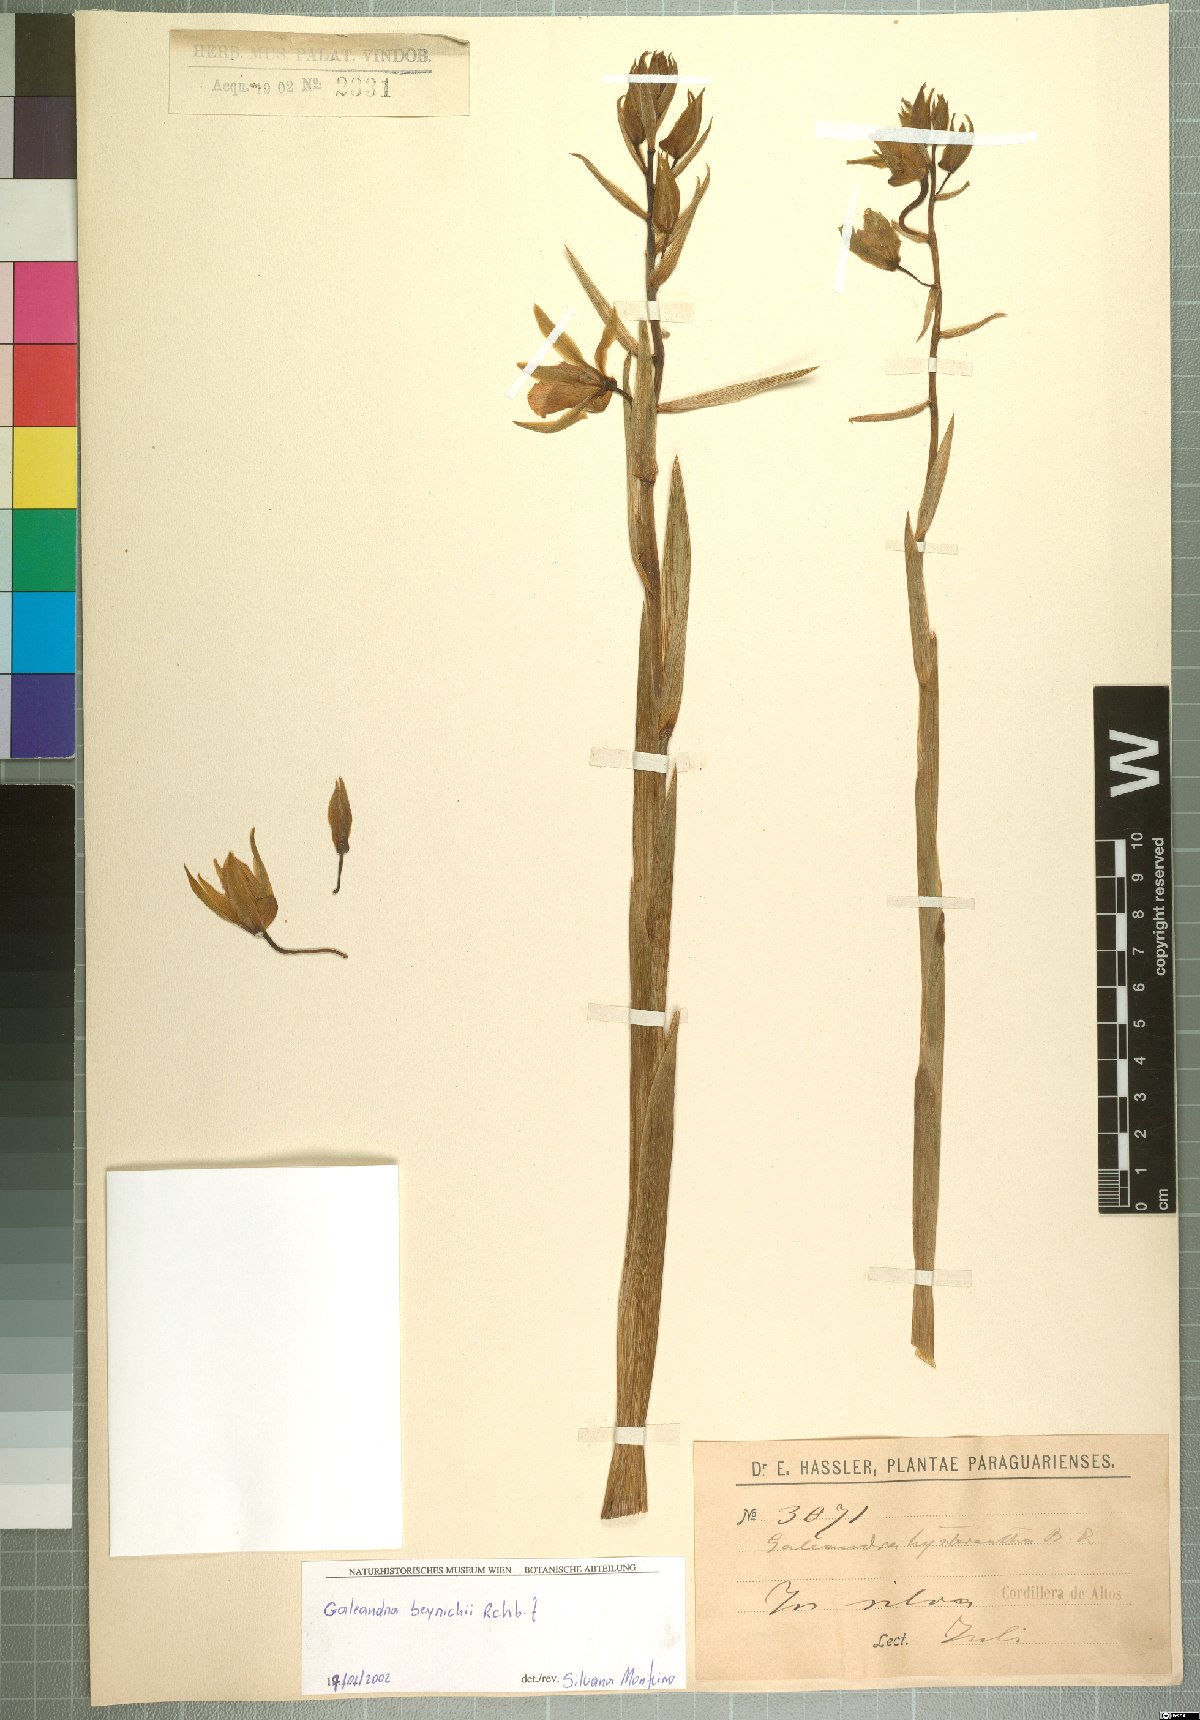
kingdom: Plantae
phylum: Tracheophyta
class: Liliopsida
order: Asparagales
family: Orchidaceae
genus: Galeandra
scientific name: Galeandra beyrichii
